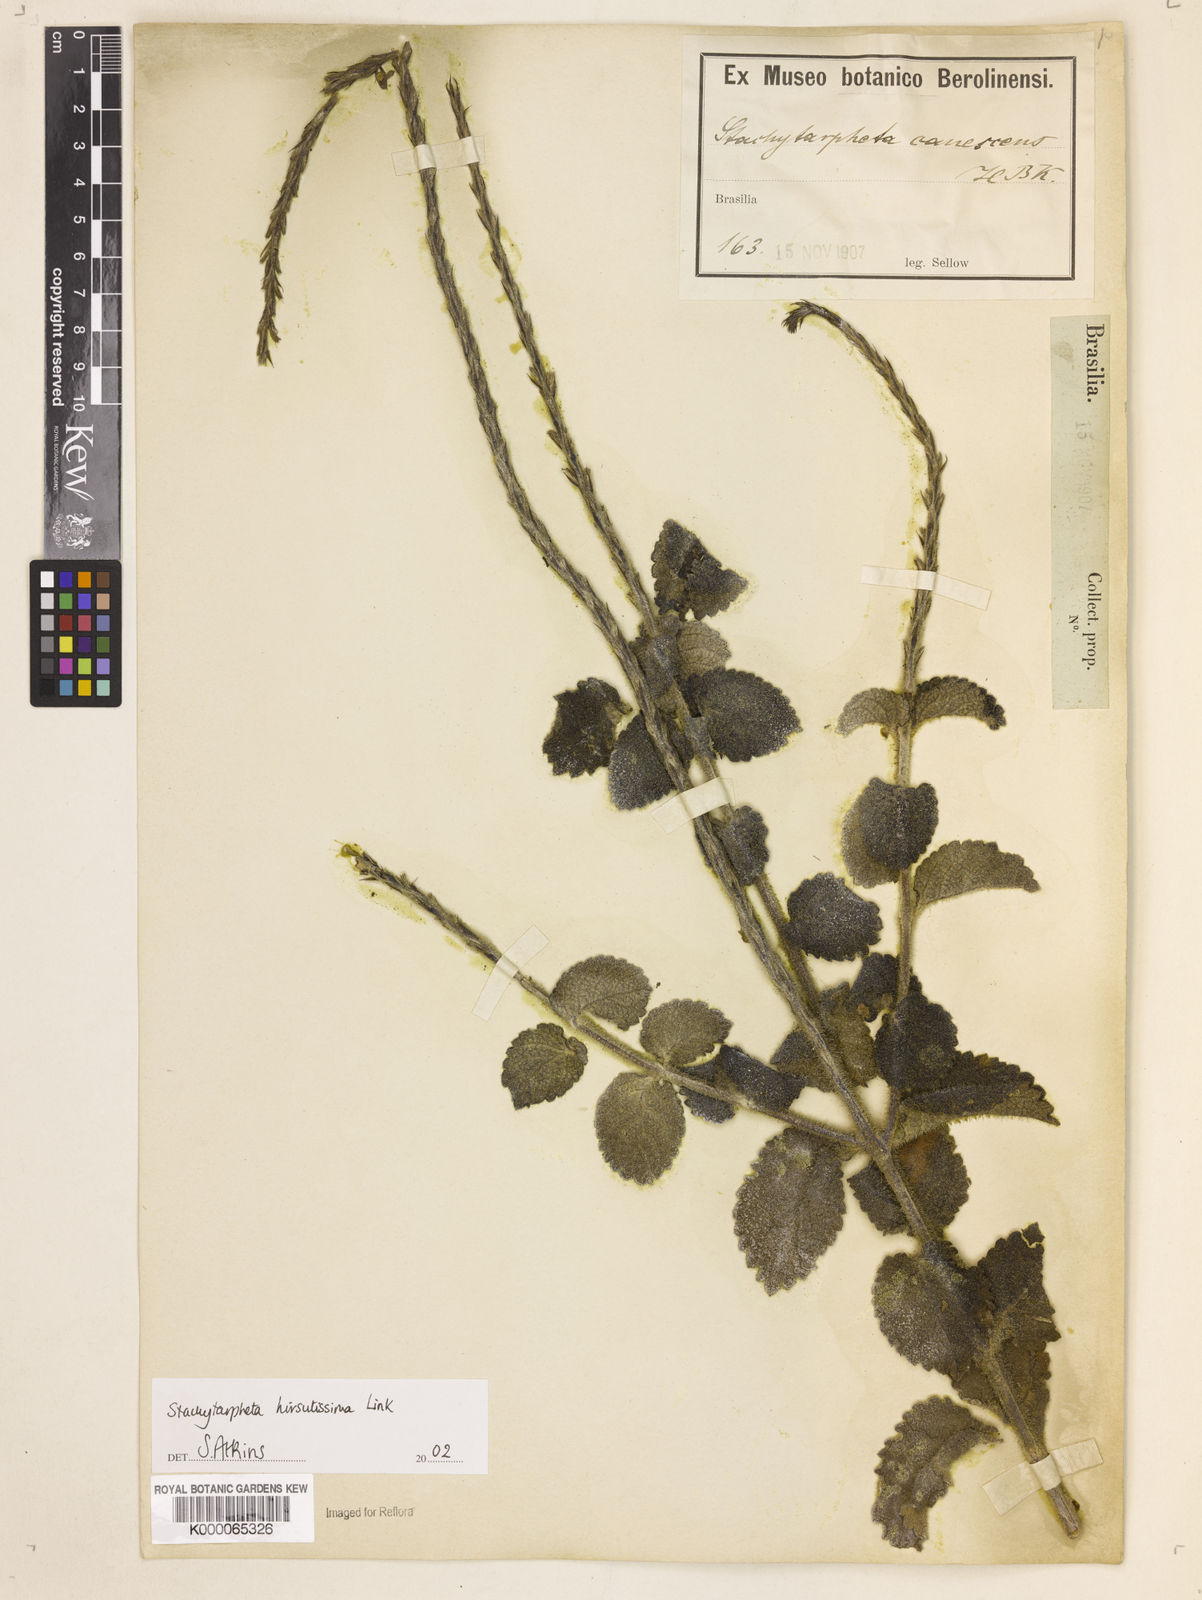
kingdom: Plantae
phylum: Tracheophyta
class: Magnoliopsida
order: Lamiales
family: Verbenaceae
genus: Stachytarpheta
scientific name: Stachytarpheta hirsutissima
